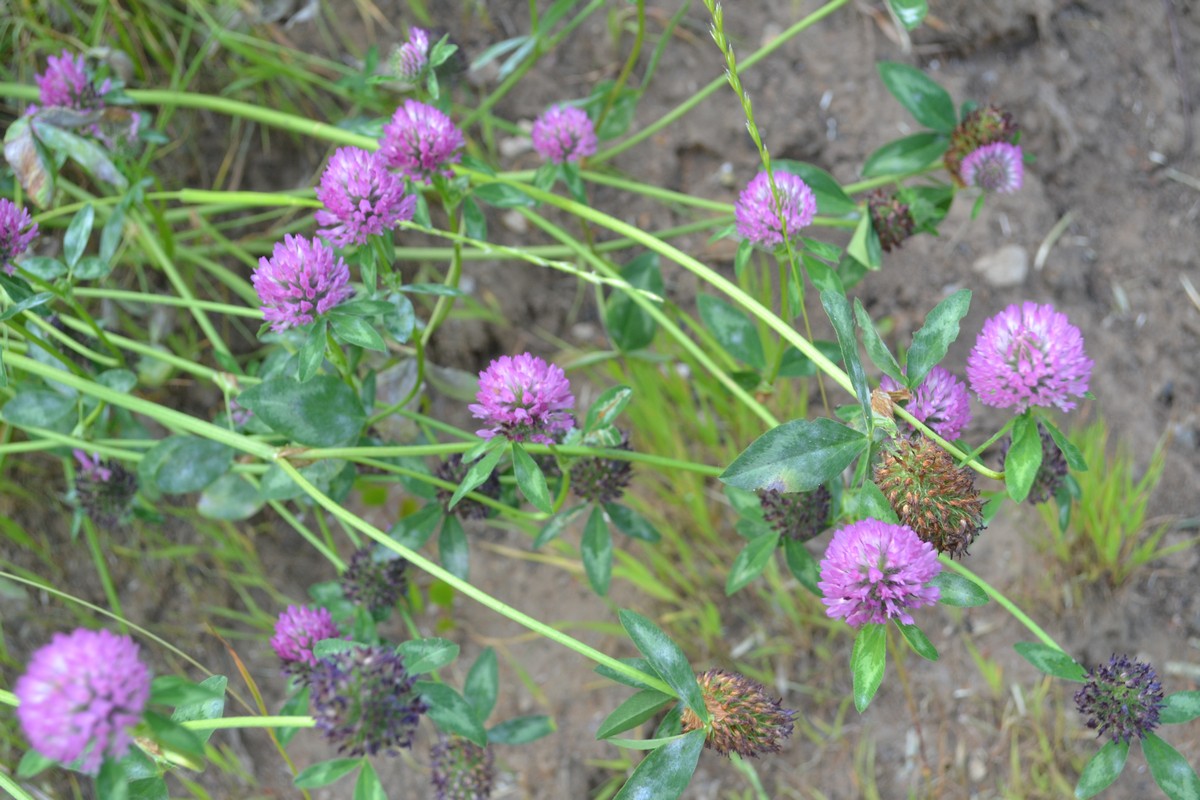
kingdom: Plantae
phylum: Tracheophyta
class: Magnoliopsida
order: Fabales
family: Fabaceae
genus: Trifolium
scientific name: Trifolium pratense
